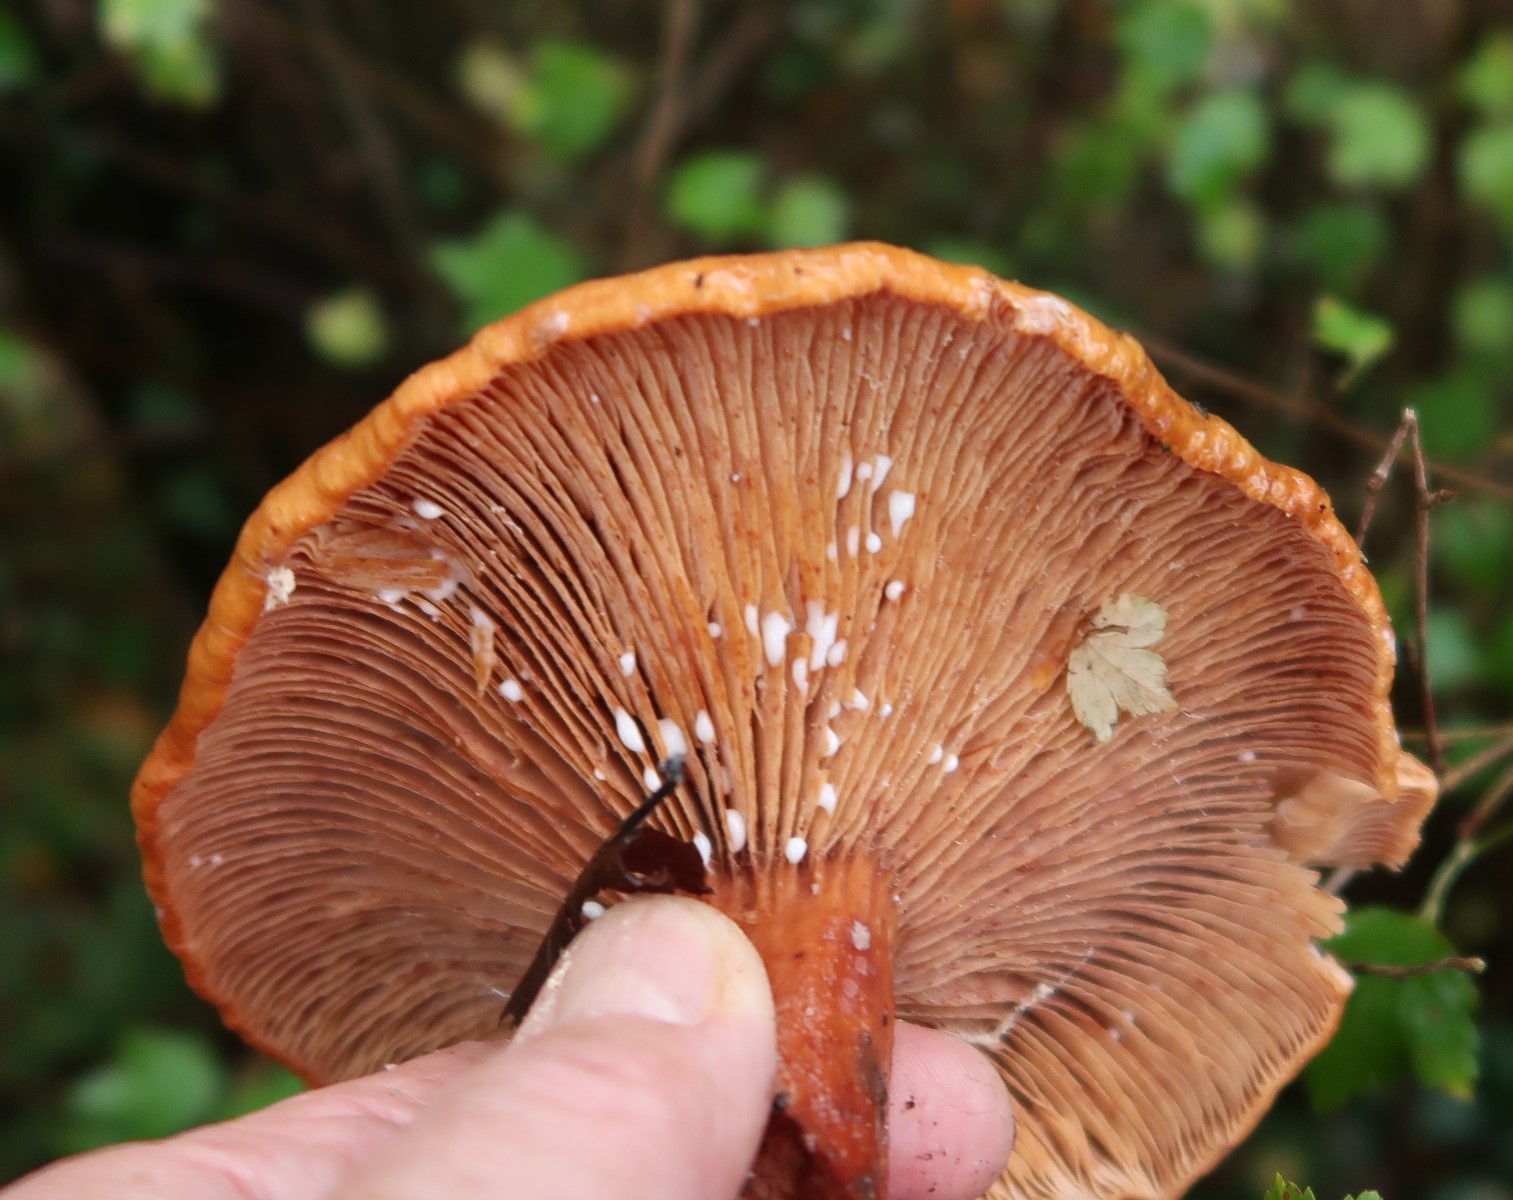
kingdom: Fungi
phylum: Basidiomycota
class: Agaricomycetes
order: Russulales
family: Russulaceae
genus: Lactarius
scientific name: Lactarius fulvissimus
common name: ræve-mælkehat
